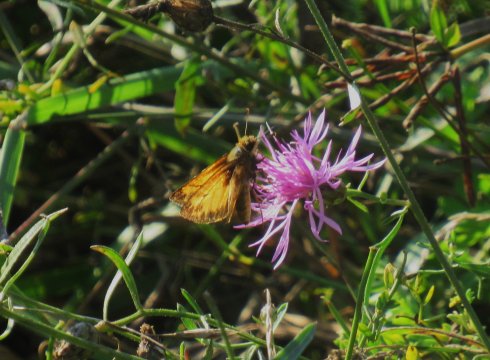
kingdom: Animalia
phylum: Arthropoda
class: Insecta
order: Lepidoptera
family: Hesperiidae
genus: Lon
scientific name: Lon zabulon
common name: Zabulon Skipper
